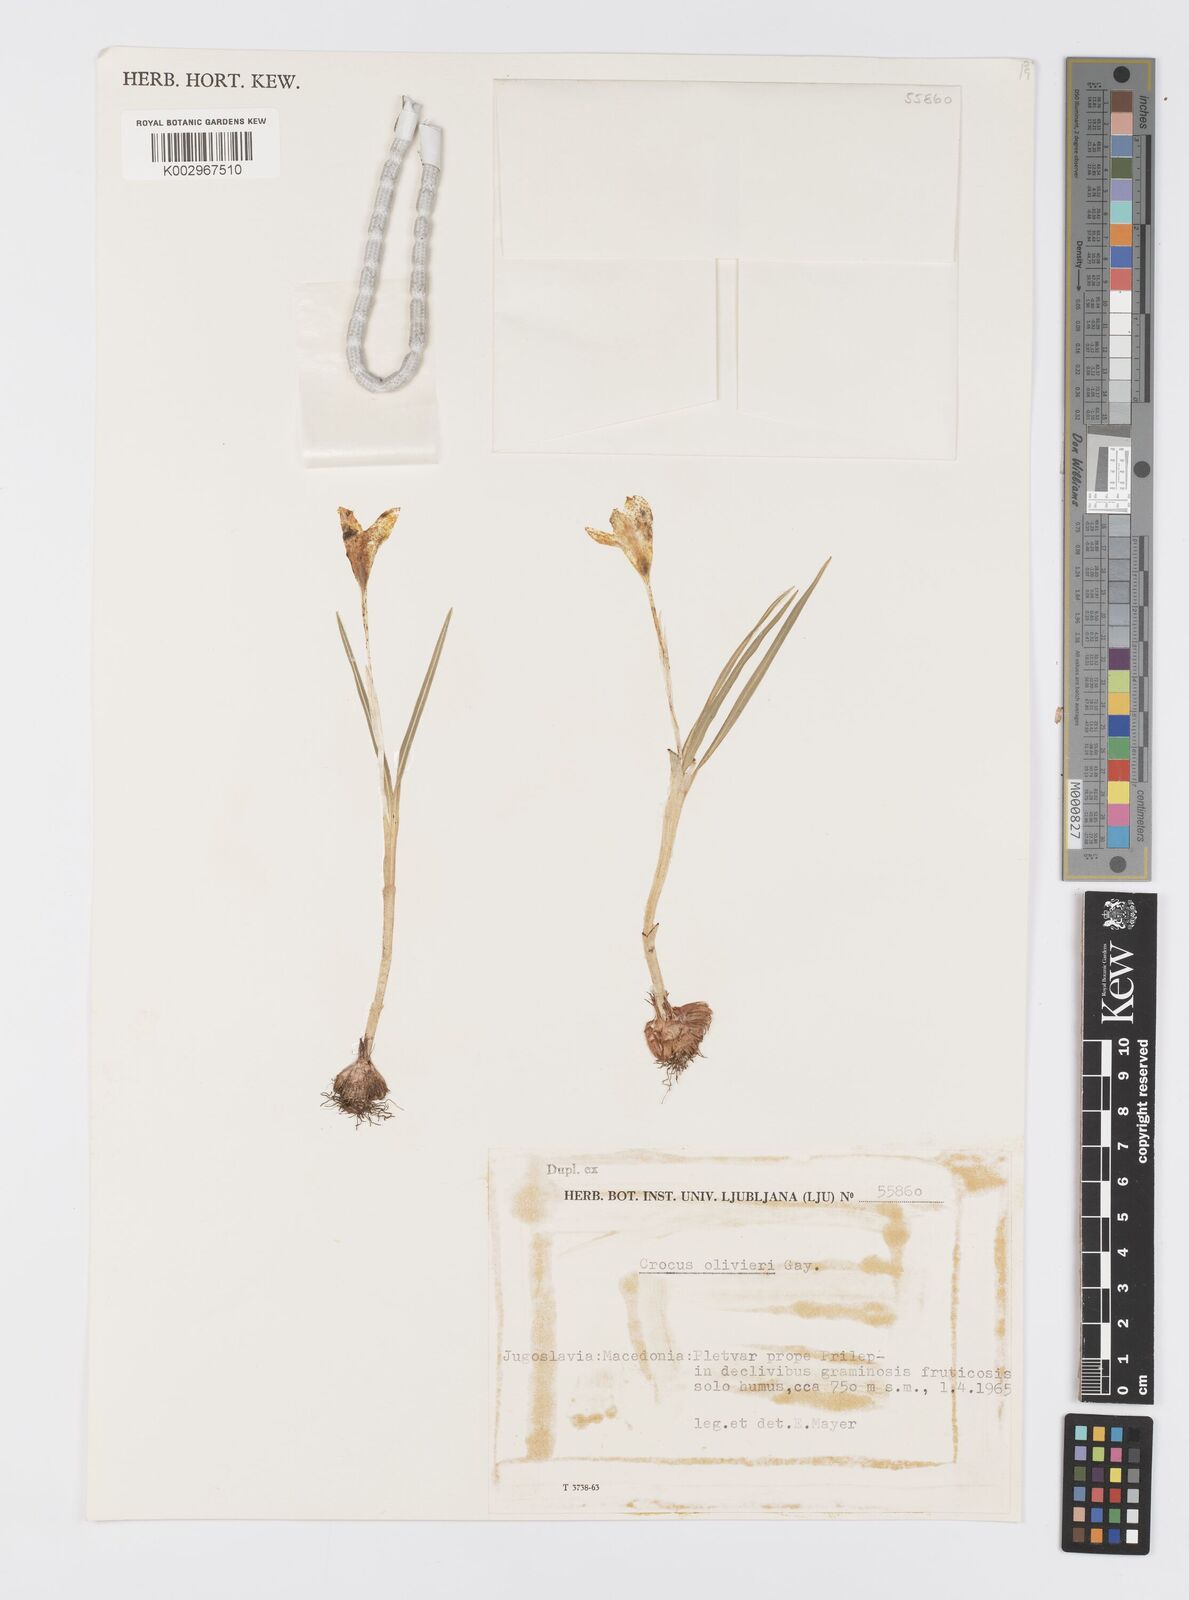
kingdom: Plantae
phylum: Tracheophyta
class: Liliopsida
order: Asparagales
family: Iridaceae
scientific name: Iridaceae
